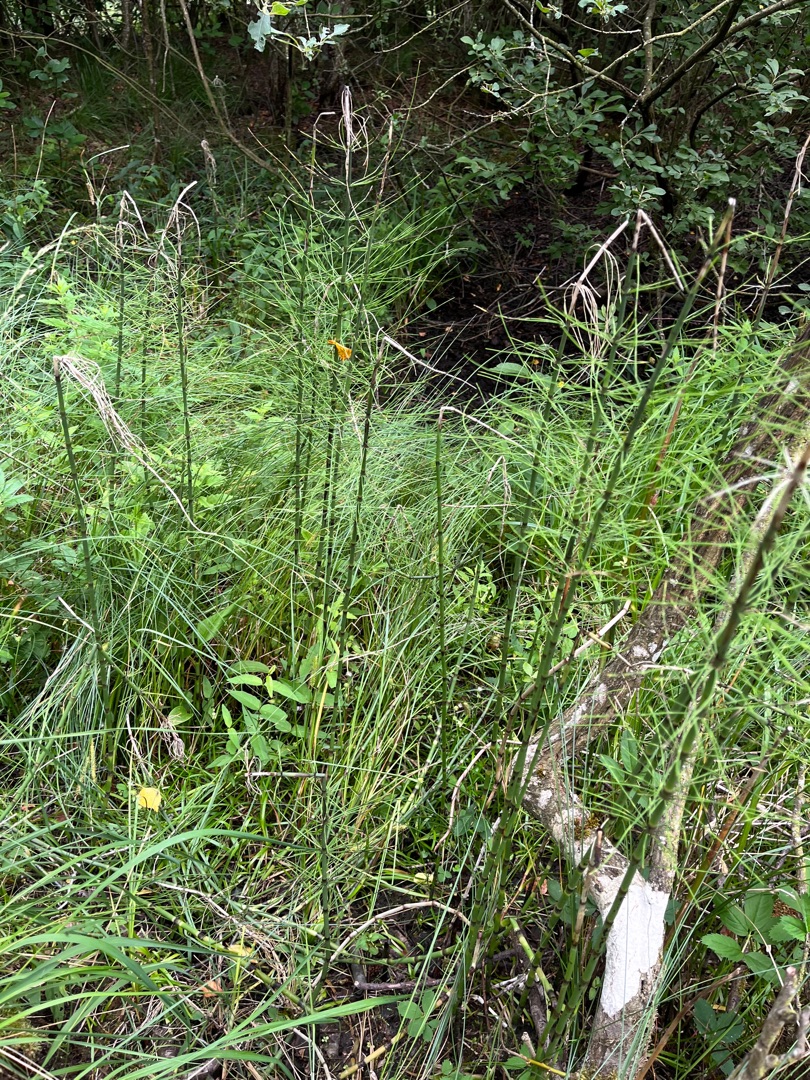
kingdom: Plantae
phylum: Tracheophyta
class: Polypodiopsida
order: Equisetales
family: Equisetaceae
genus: Equisetum
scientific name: Equisetum fluviatile
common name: Dynd-padderok
